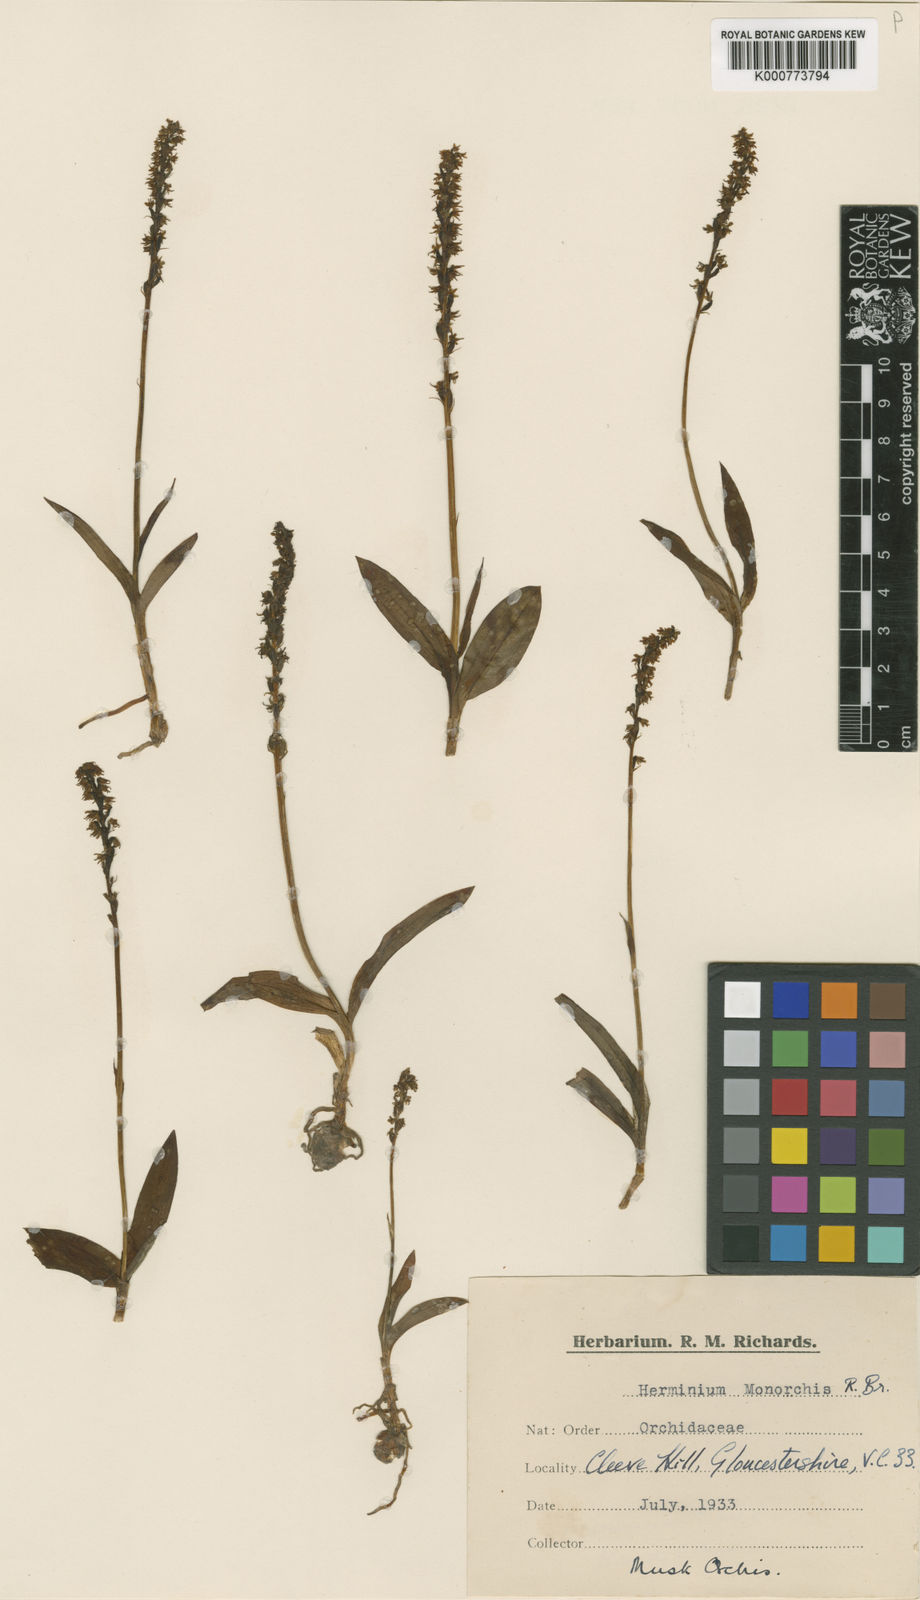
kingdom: Plantae
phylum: Tracheophyta
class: Liliopsida
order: Asparagales
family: Orchidaceae
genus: Herminium
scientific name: Herminium monorchis
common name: Musk orchid
